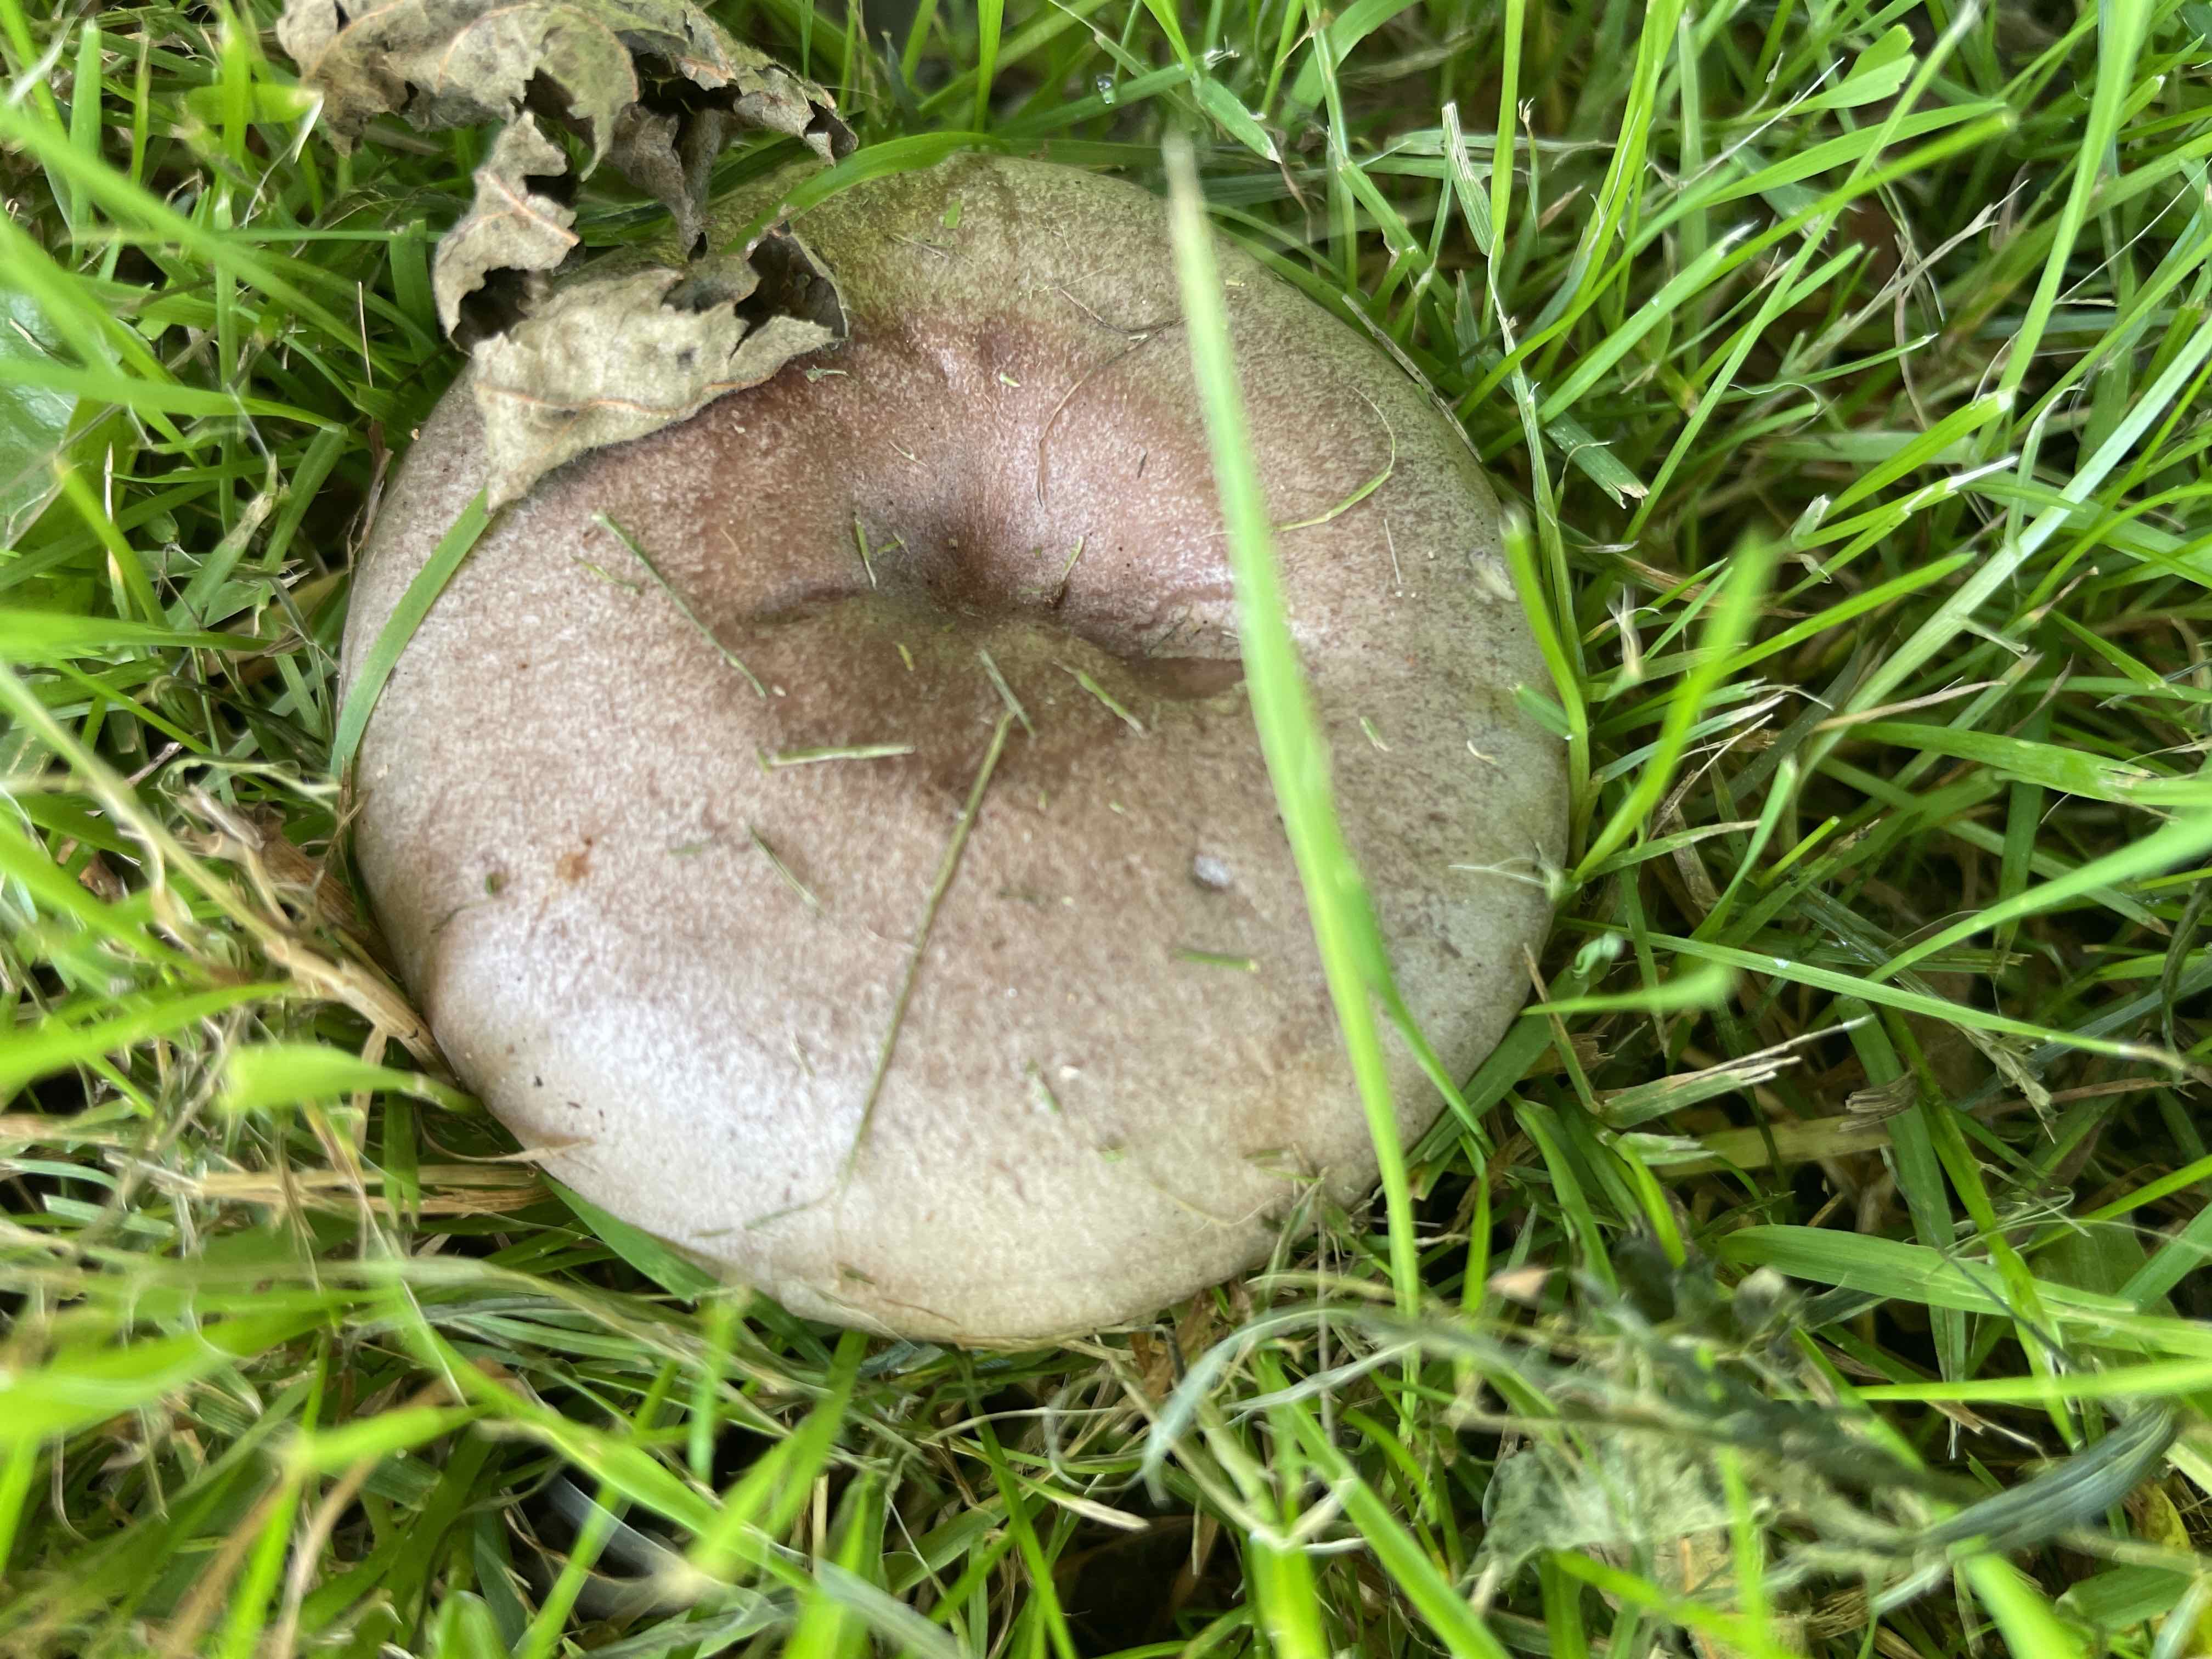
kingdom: Fungi
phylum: Basidiomycota
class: Agaricomycetes
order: Russulales
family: Russulaceae
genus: Lactarius
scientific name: Lactarius pyrogalus
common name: hassel-mælkehat
